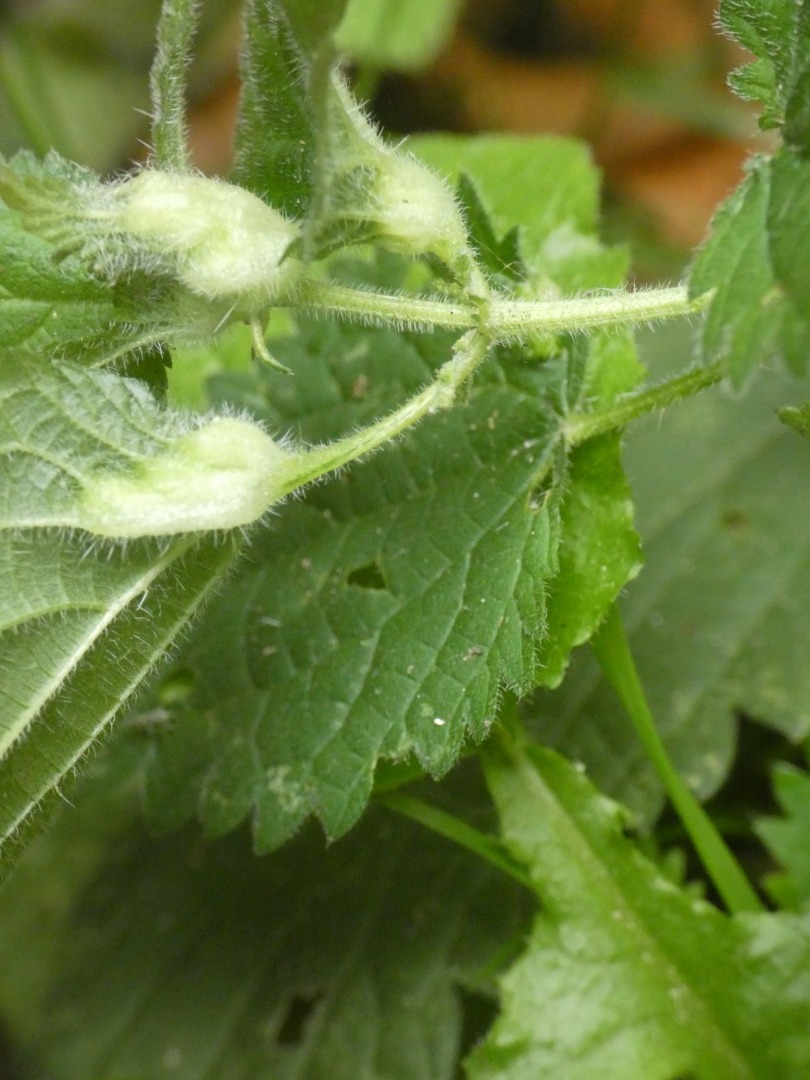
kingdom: Animalia
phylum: Arthropoda
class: Insecta
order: Diptera
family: Cecidomyiidae
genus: Dasineura
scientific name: Dasineura urticae
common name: Nældepunggalmyg
